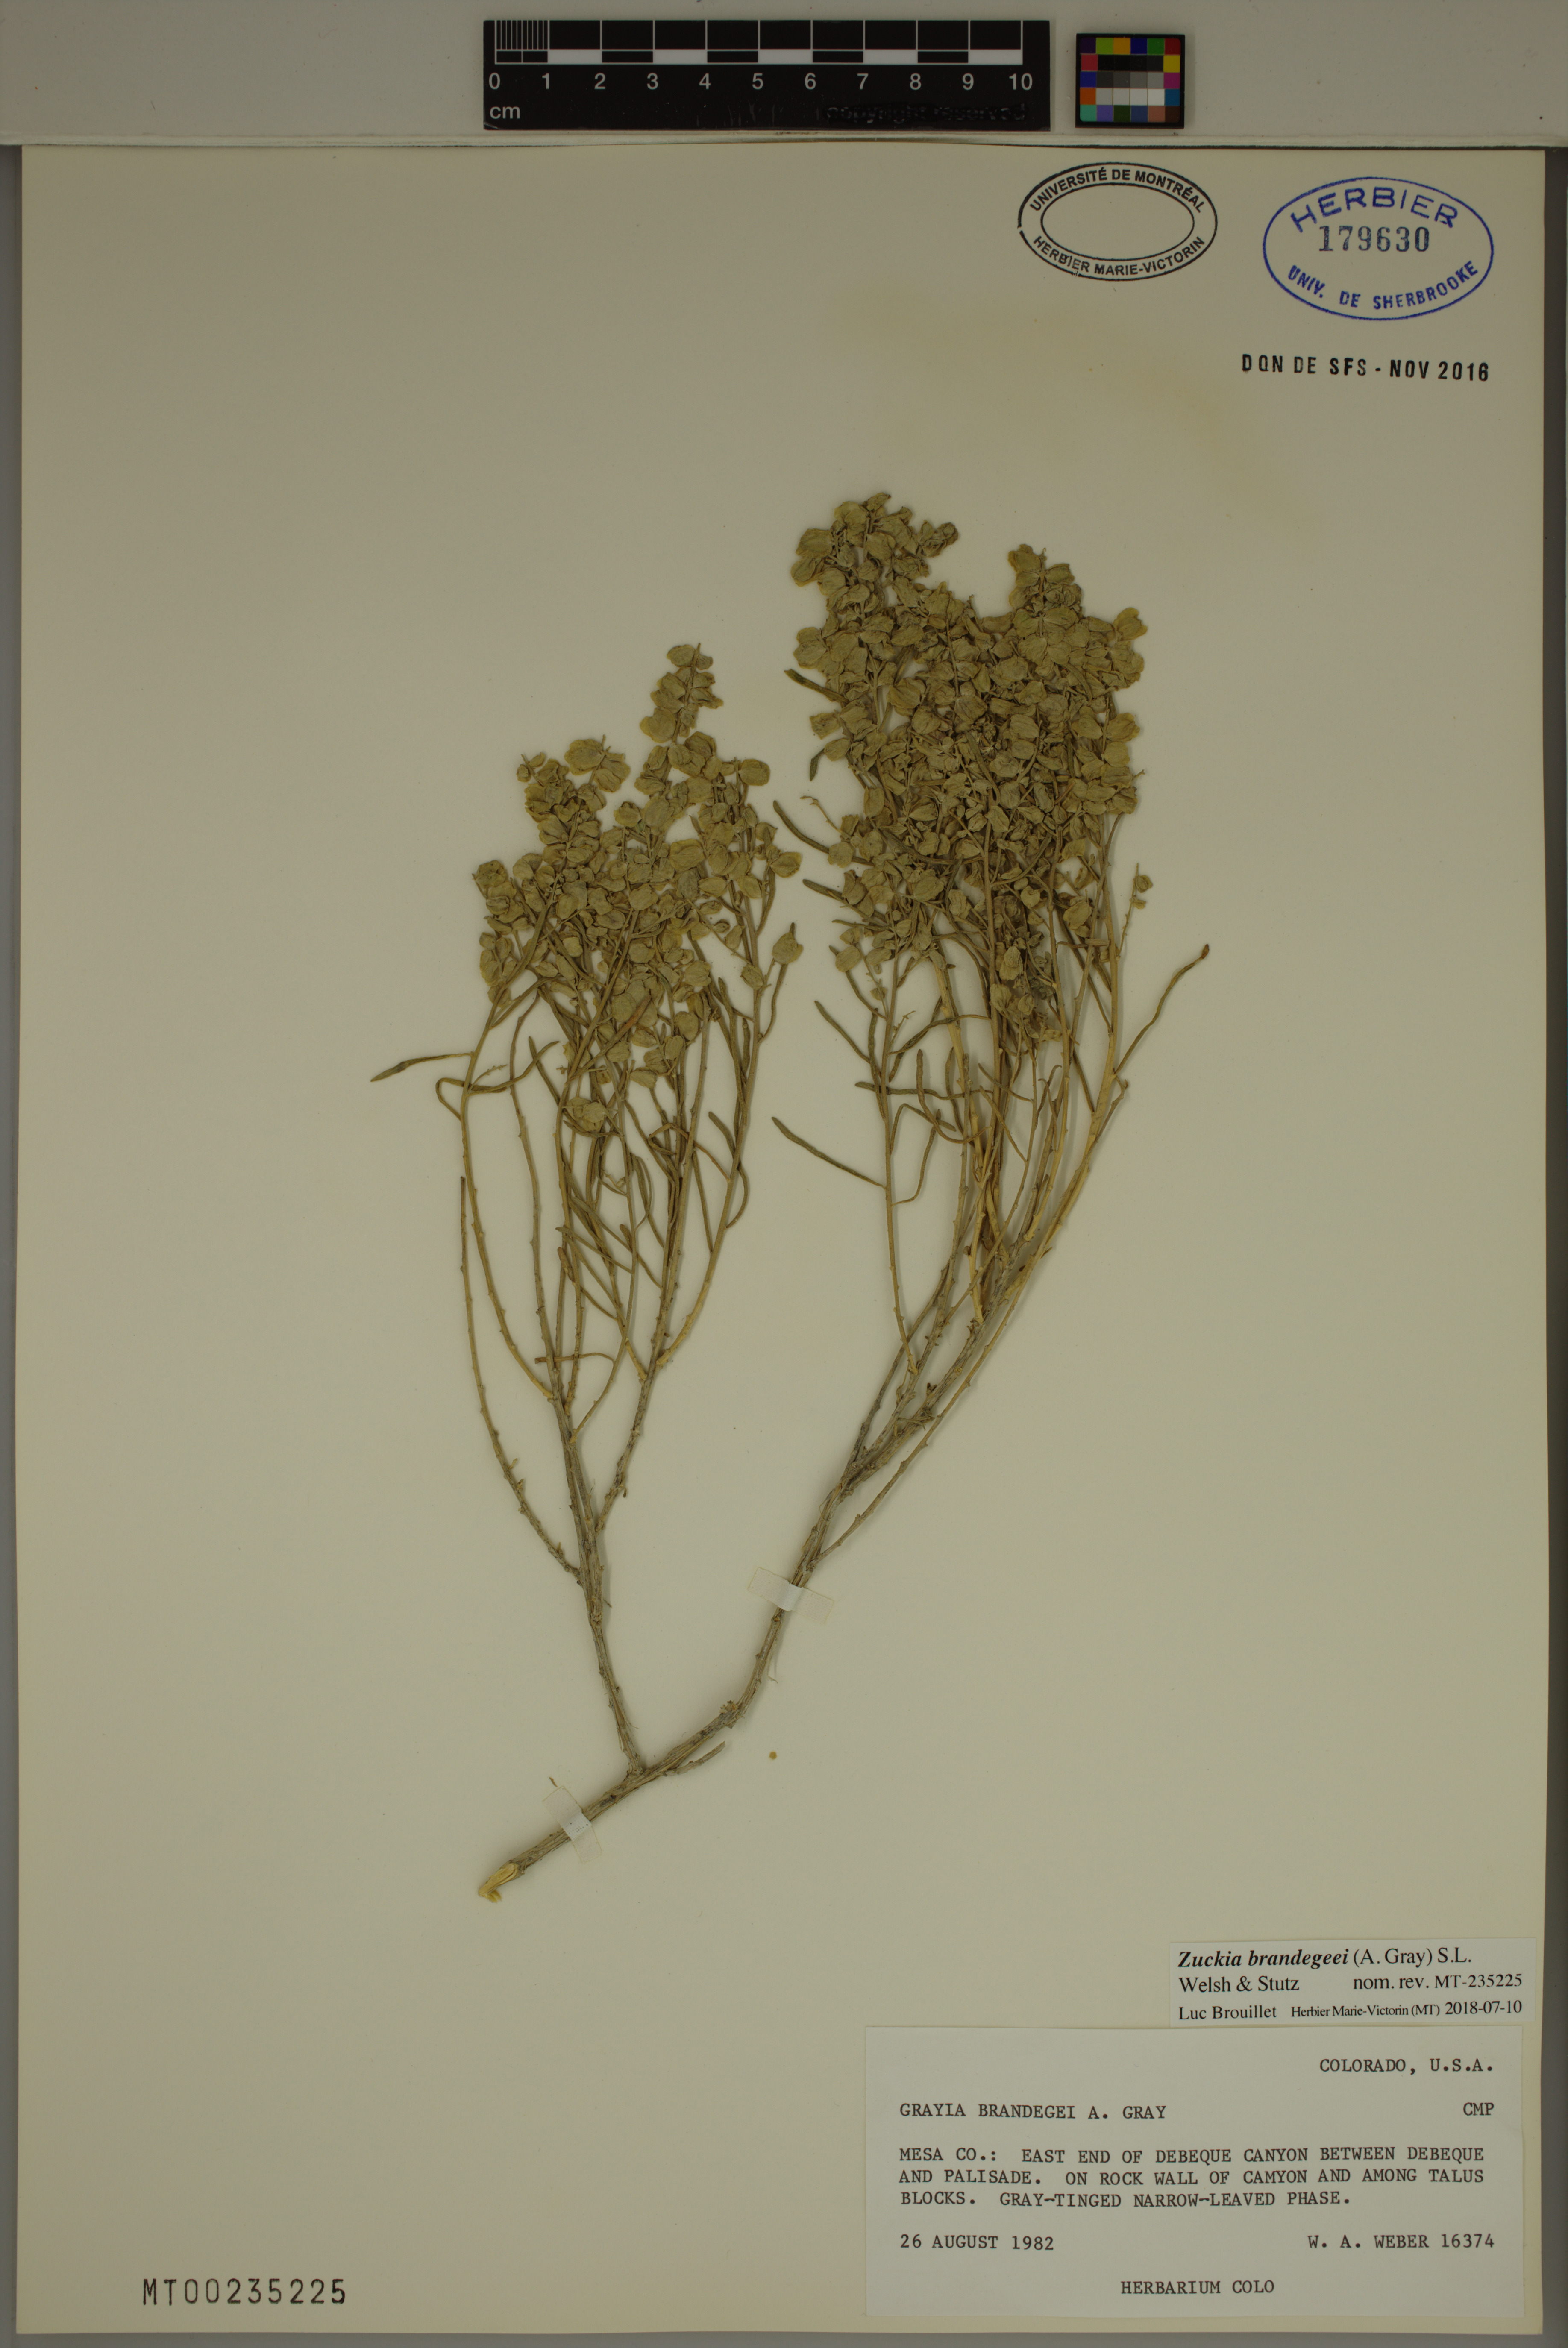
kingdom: Plantae
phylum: Tracheophyta
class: Magnoliopsida
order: Caryophyllales
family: Amaranthaceae
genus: Grayia
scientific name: Grayia brandegeei
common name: Brandegee's siltbush
